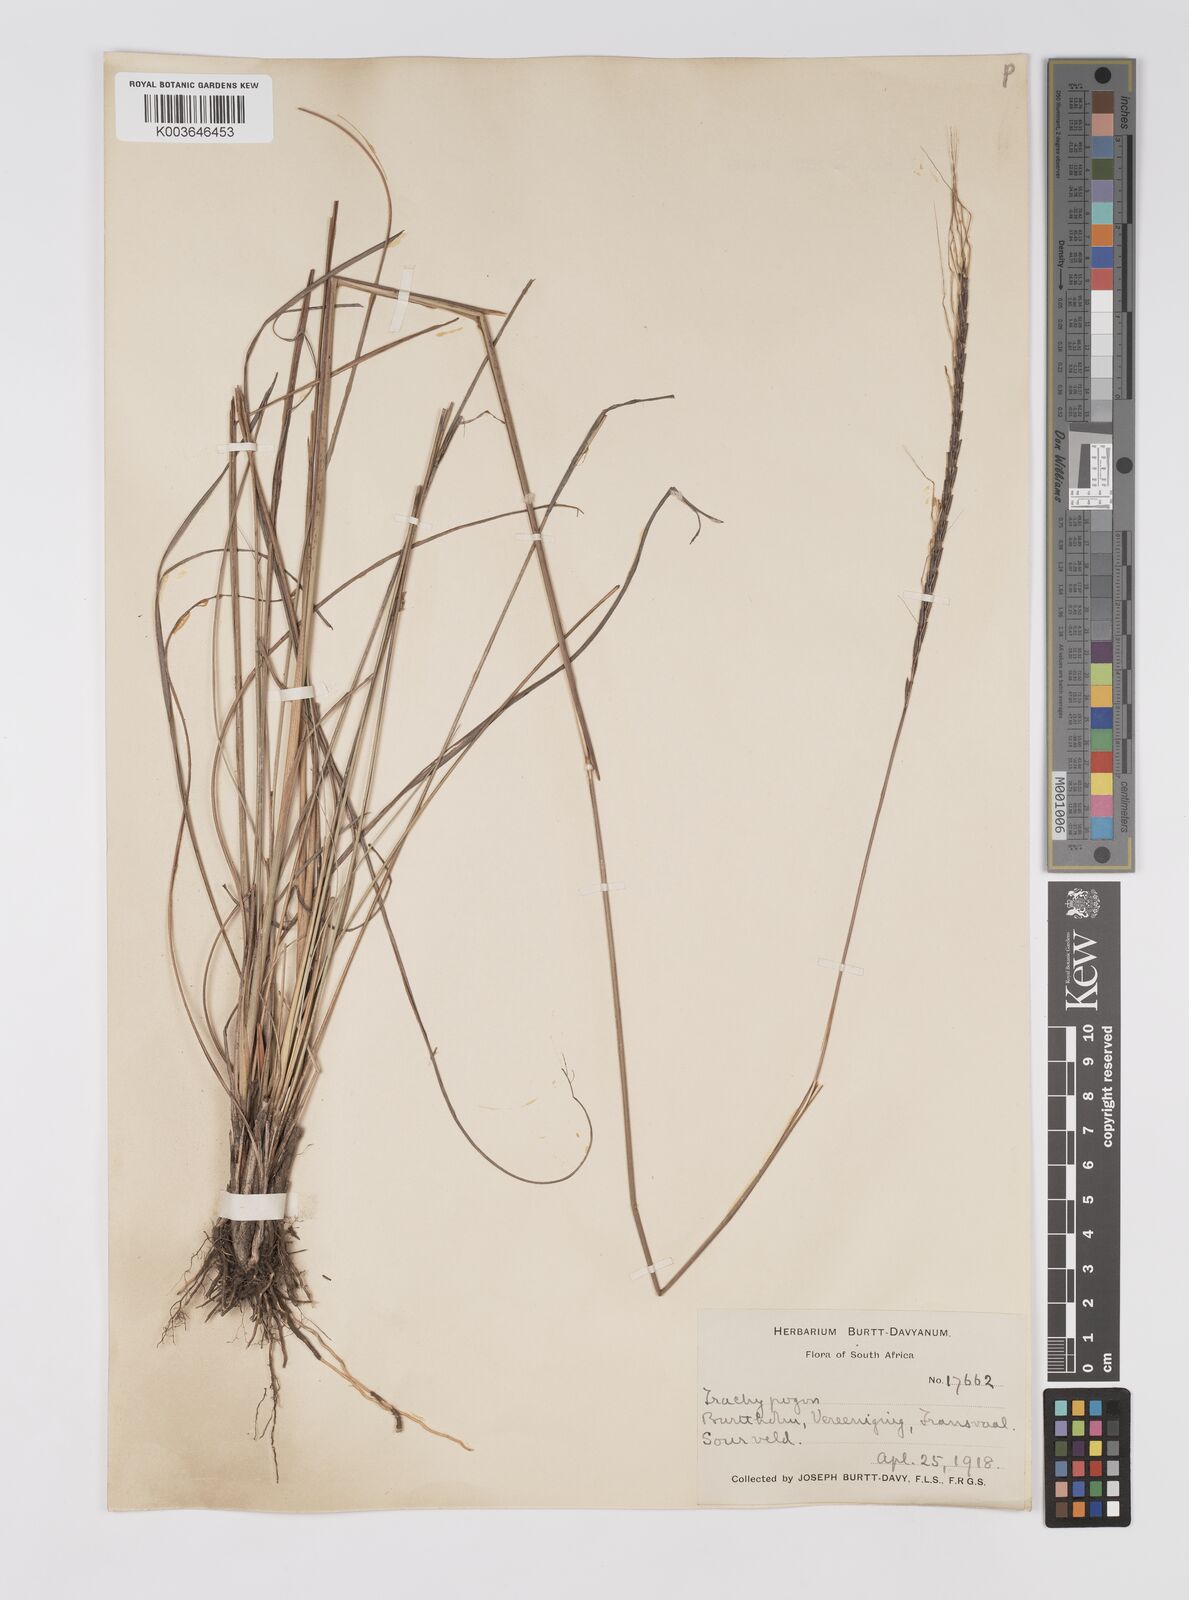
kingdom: Plantae
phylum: Tracheophyta
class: Liliopsida
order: Poales
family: Poaceae
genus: Trachypogon
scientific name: Trachypogon spicatus
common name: Crinkle-awn
